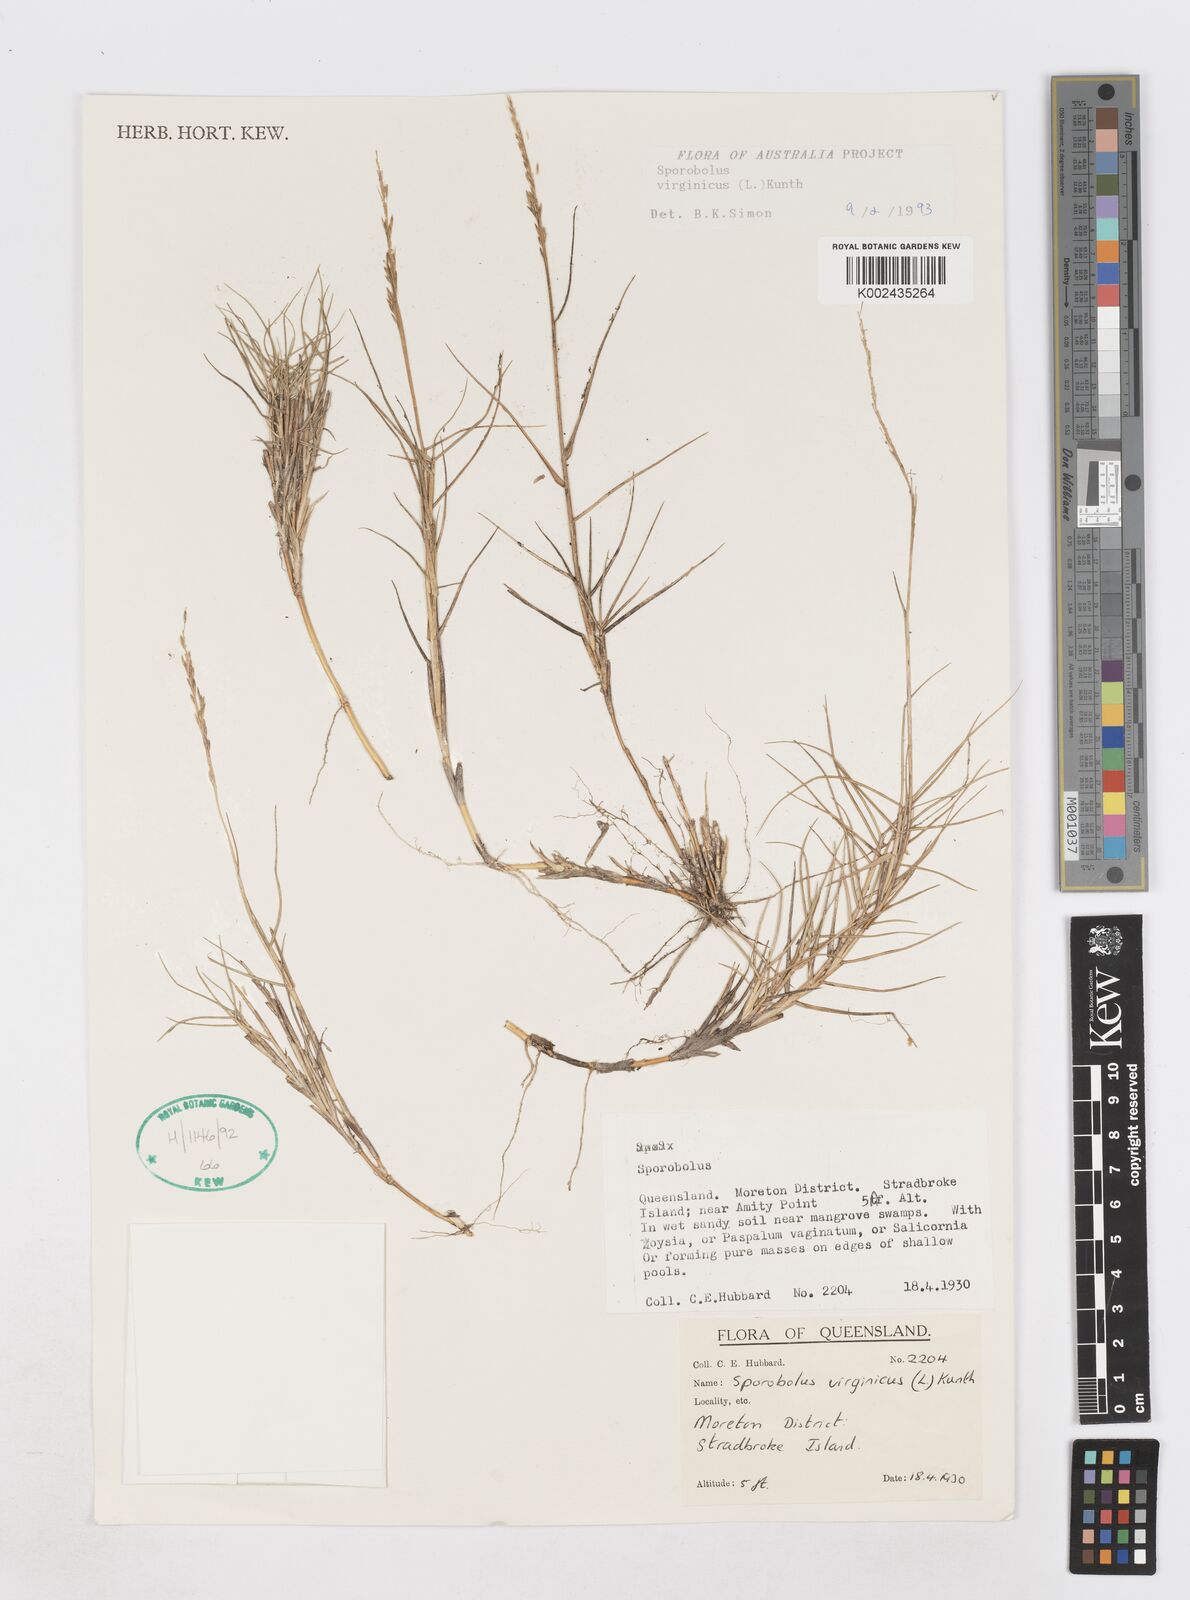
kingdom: Plantae
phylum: Tracheophyta
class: Liliopsida
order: Poales
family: Poaceae
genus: Sporobolus
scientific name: Sporobolus virginicus
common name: Beach dropseed
